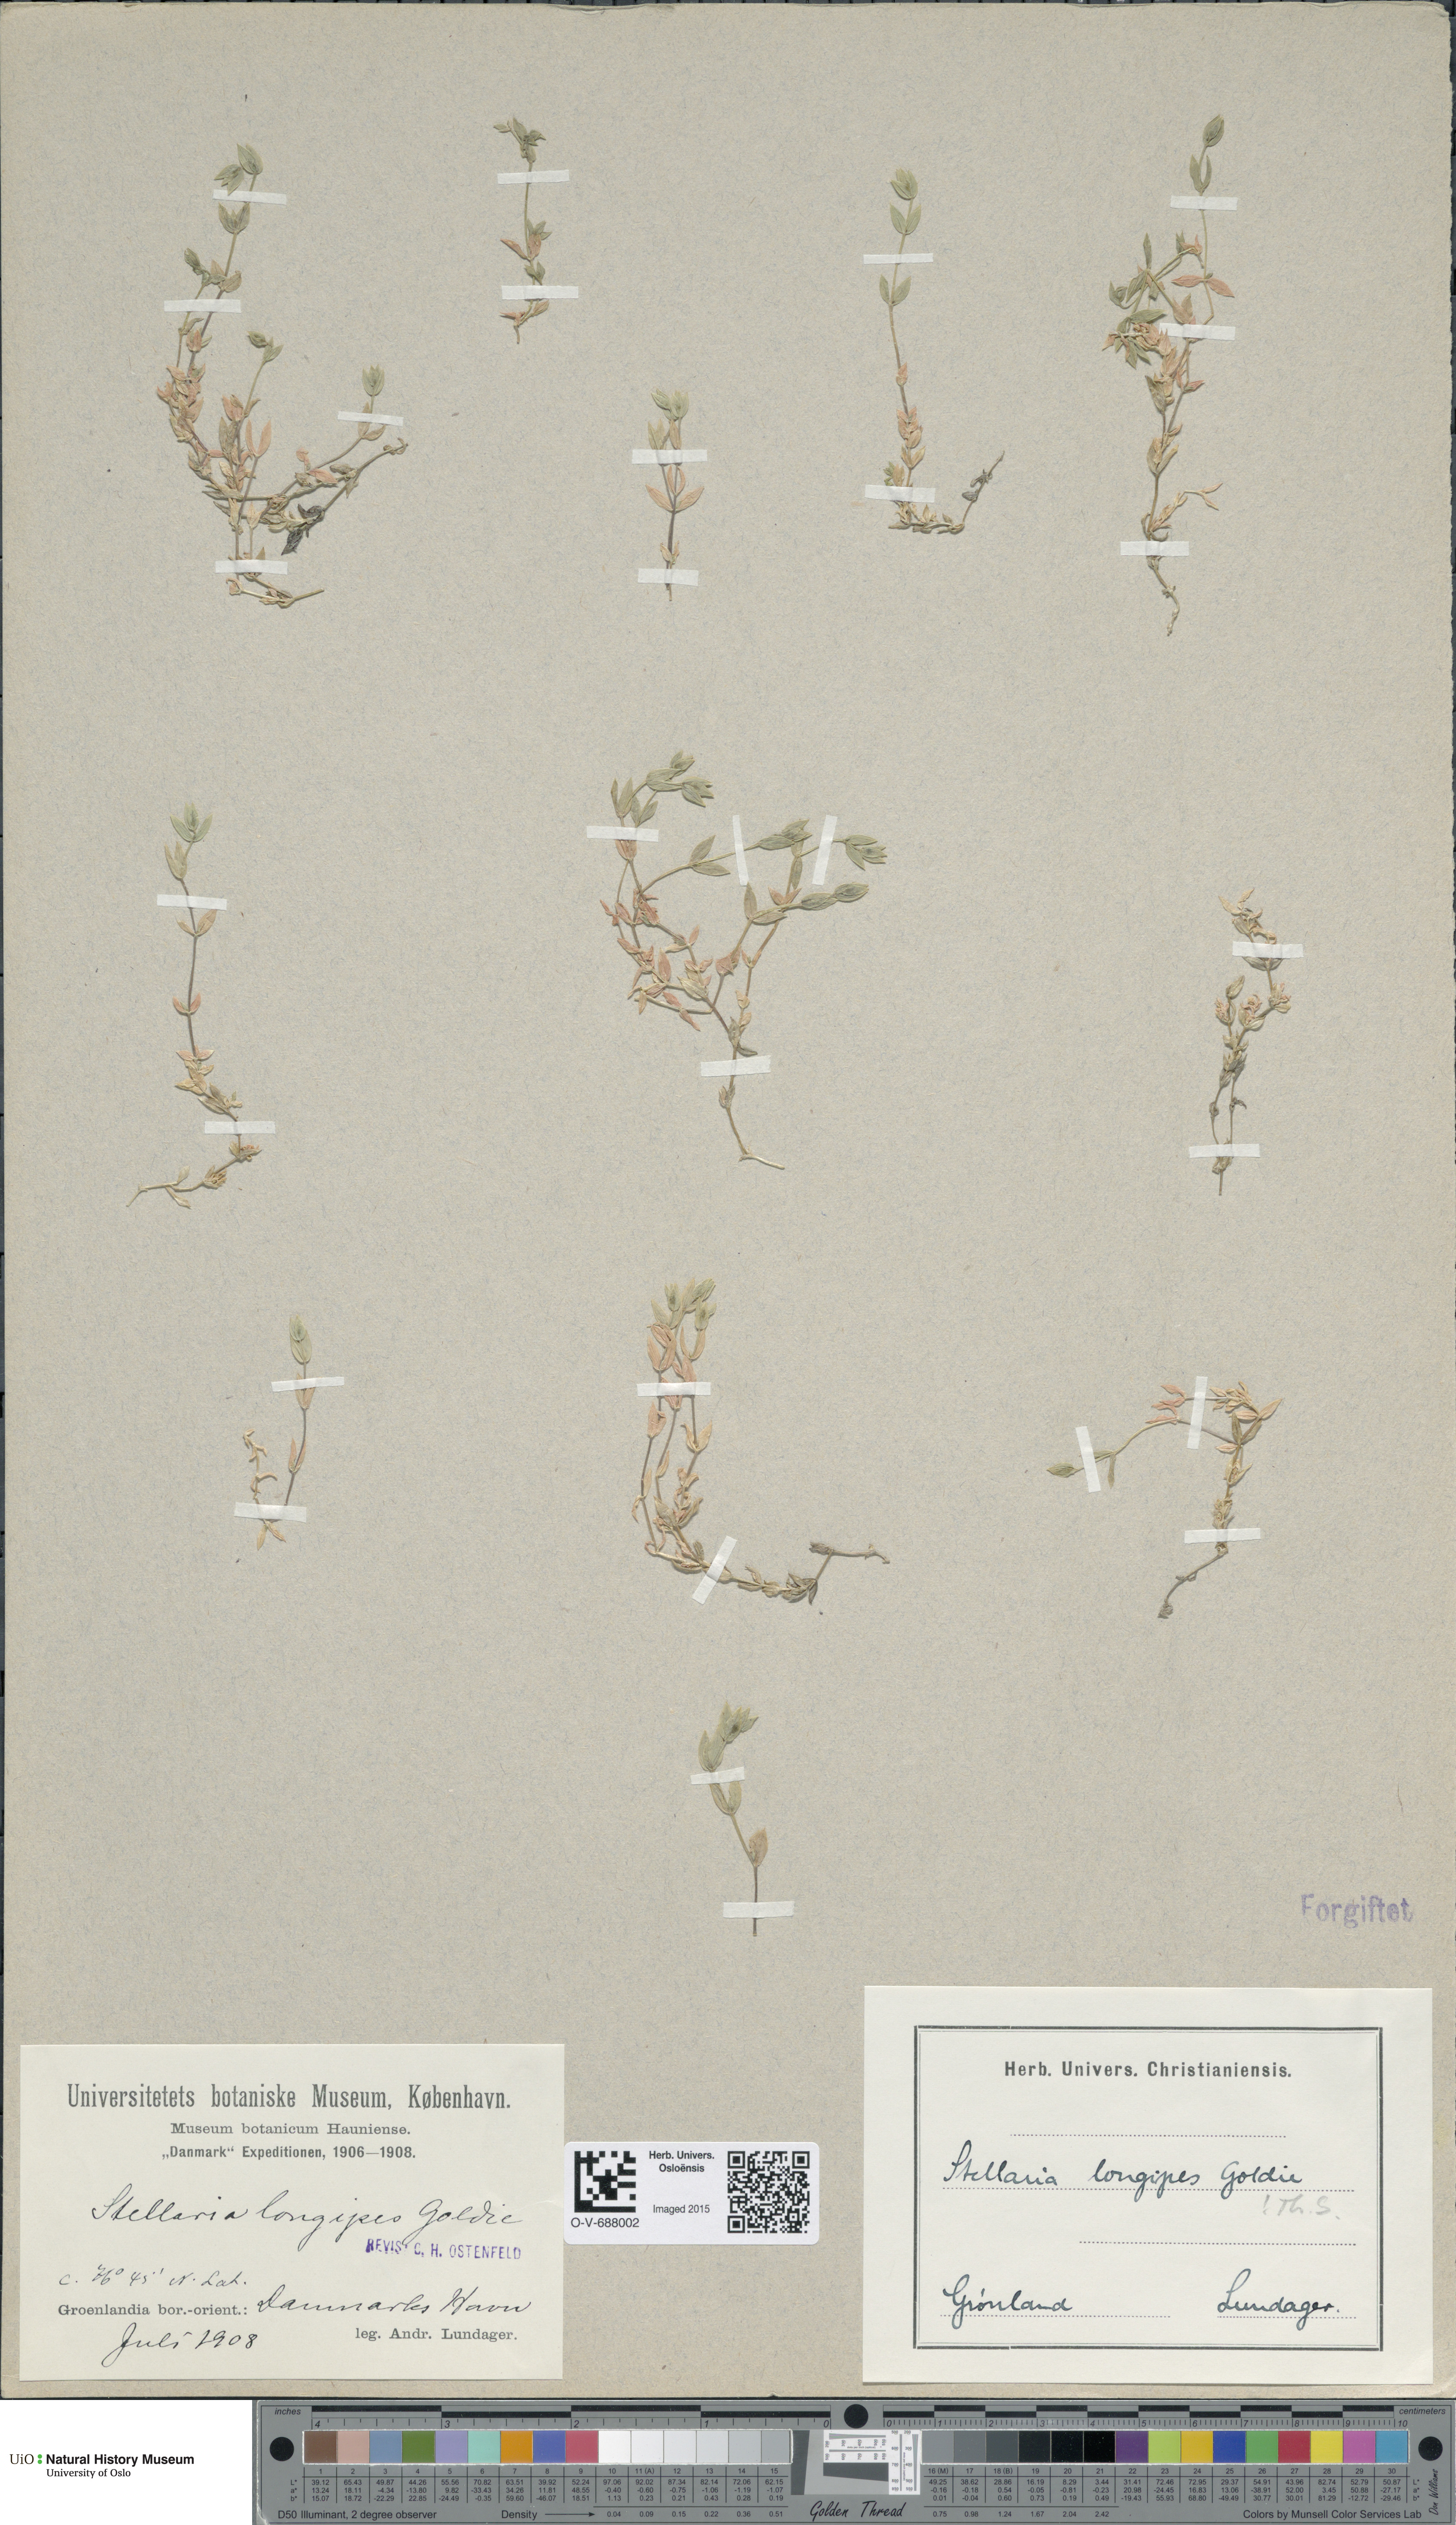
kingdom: Plantae
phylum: Tracheophyta
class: Magnoliopsida
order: Caryophyllales
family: Caryophyllaceae
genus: Stellaria
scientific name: Stellaria longipes
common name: Goldie's starwort
